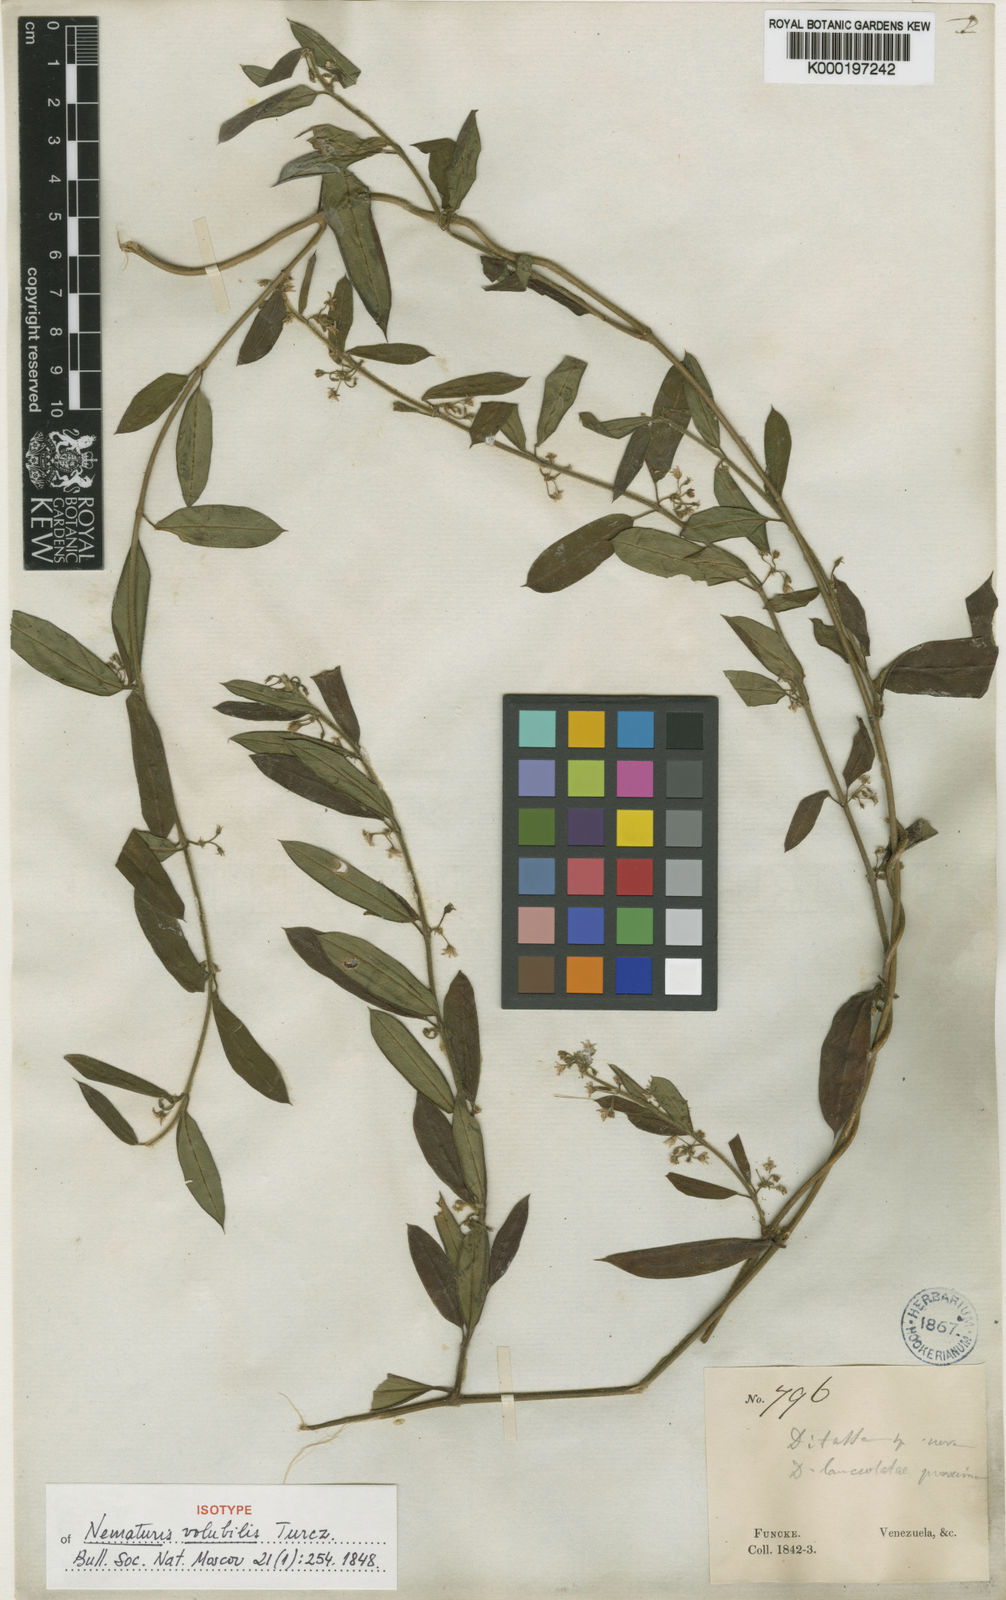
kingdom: Plantae
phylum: Tracheophyta
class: Magnoliopsida
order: Gentianales
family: Apocynaceae
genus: Ditassa
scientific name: Ditassa lanceolata
